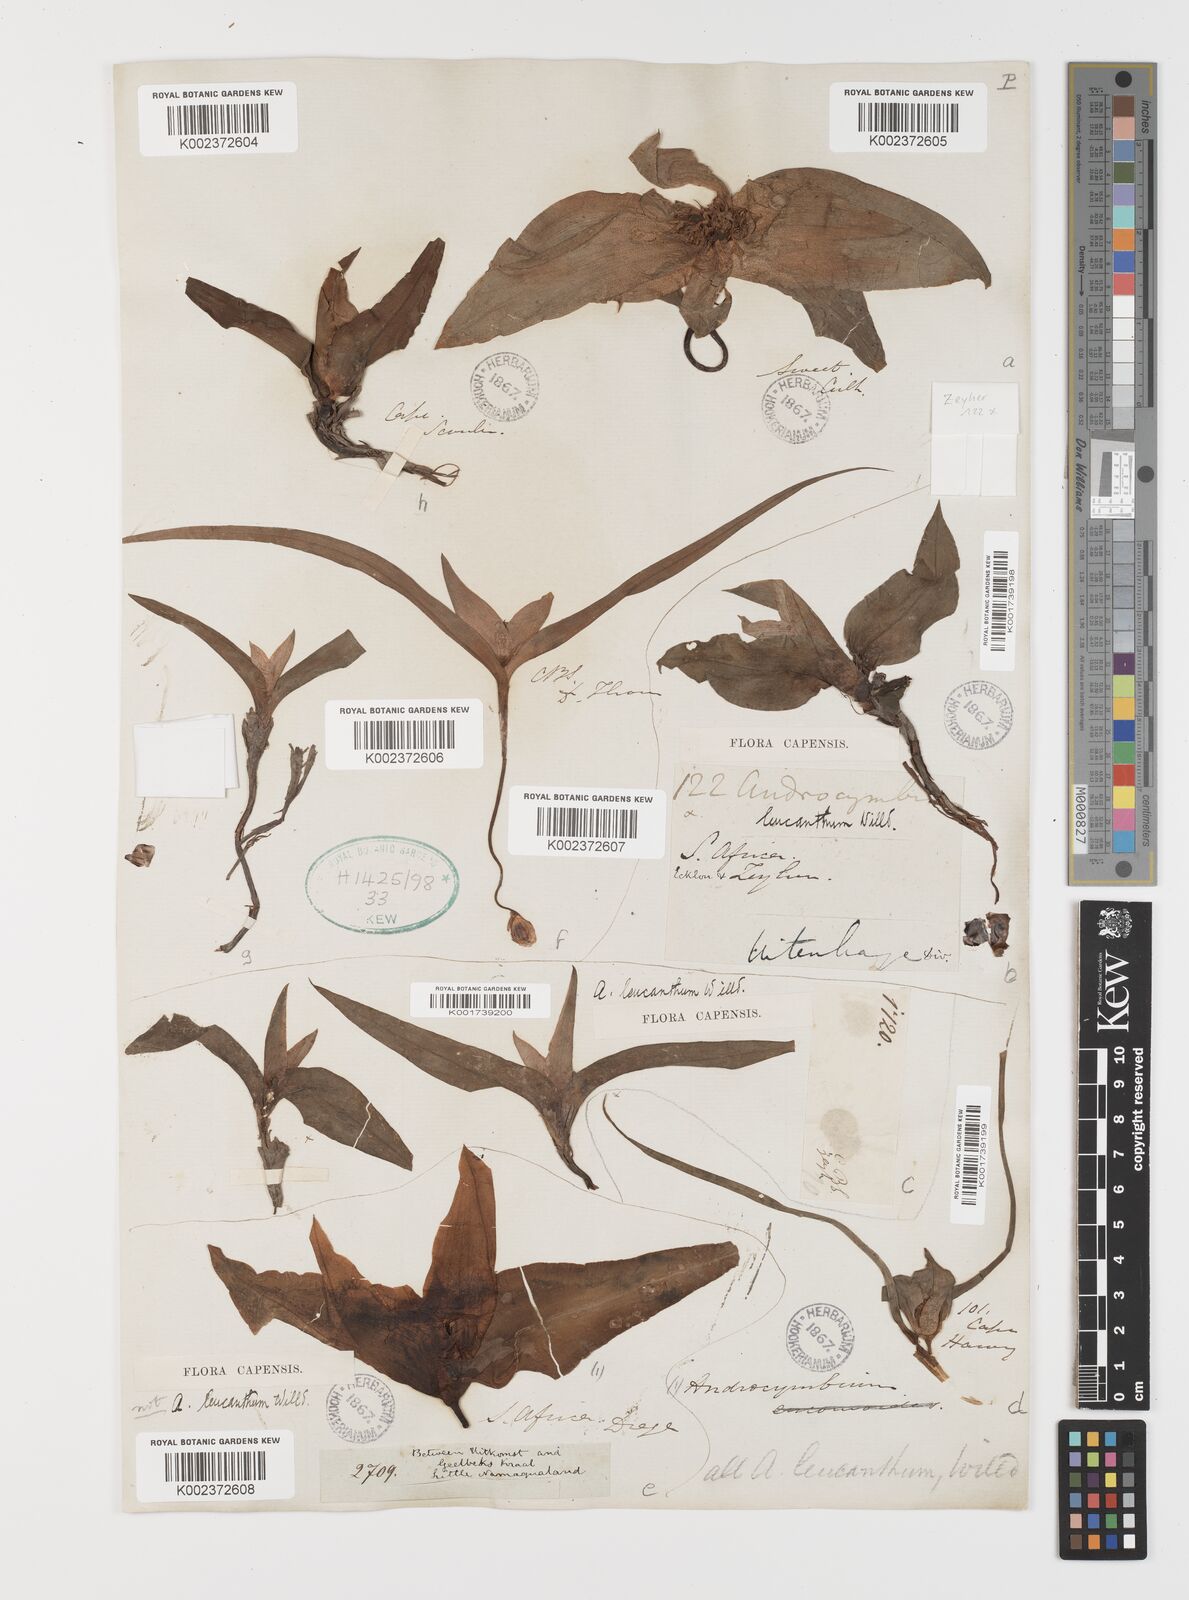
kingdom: Plantae
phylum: Tracheophyta
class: Liliopsida
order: Liliales
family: Colchicaceae
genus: Colchicum
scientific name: Colchicum capense
